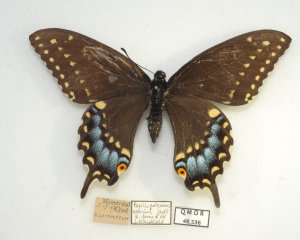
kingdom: Animalia
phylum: Arthropoda
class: Insecta
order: Lepidoptera
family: Papilionidae
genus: Papilio
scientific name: Papilio polyxenes
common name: Black Swallowtail
